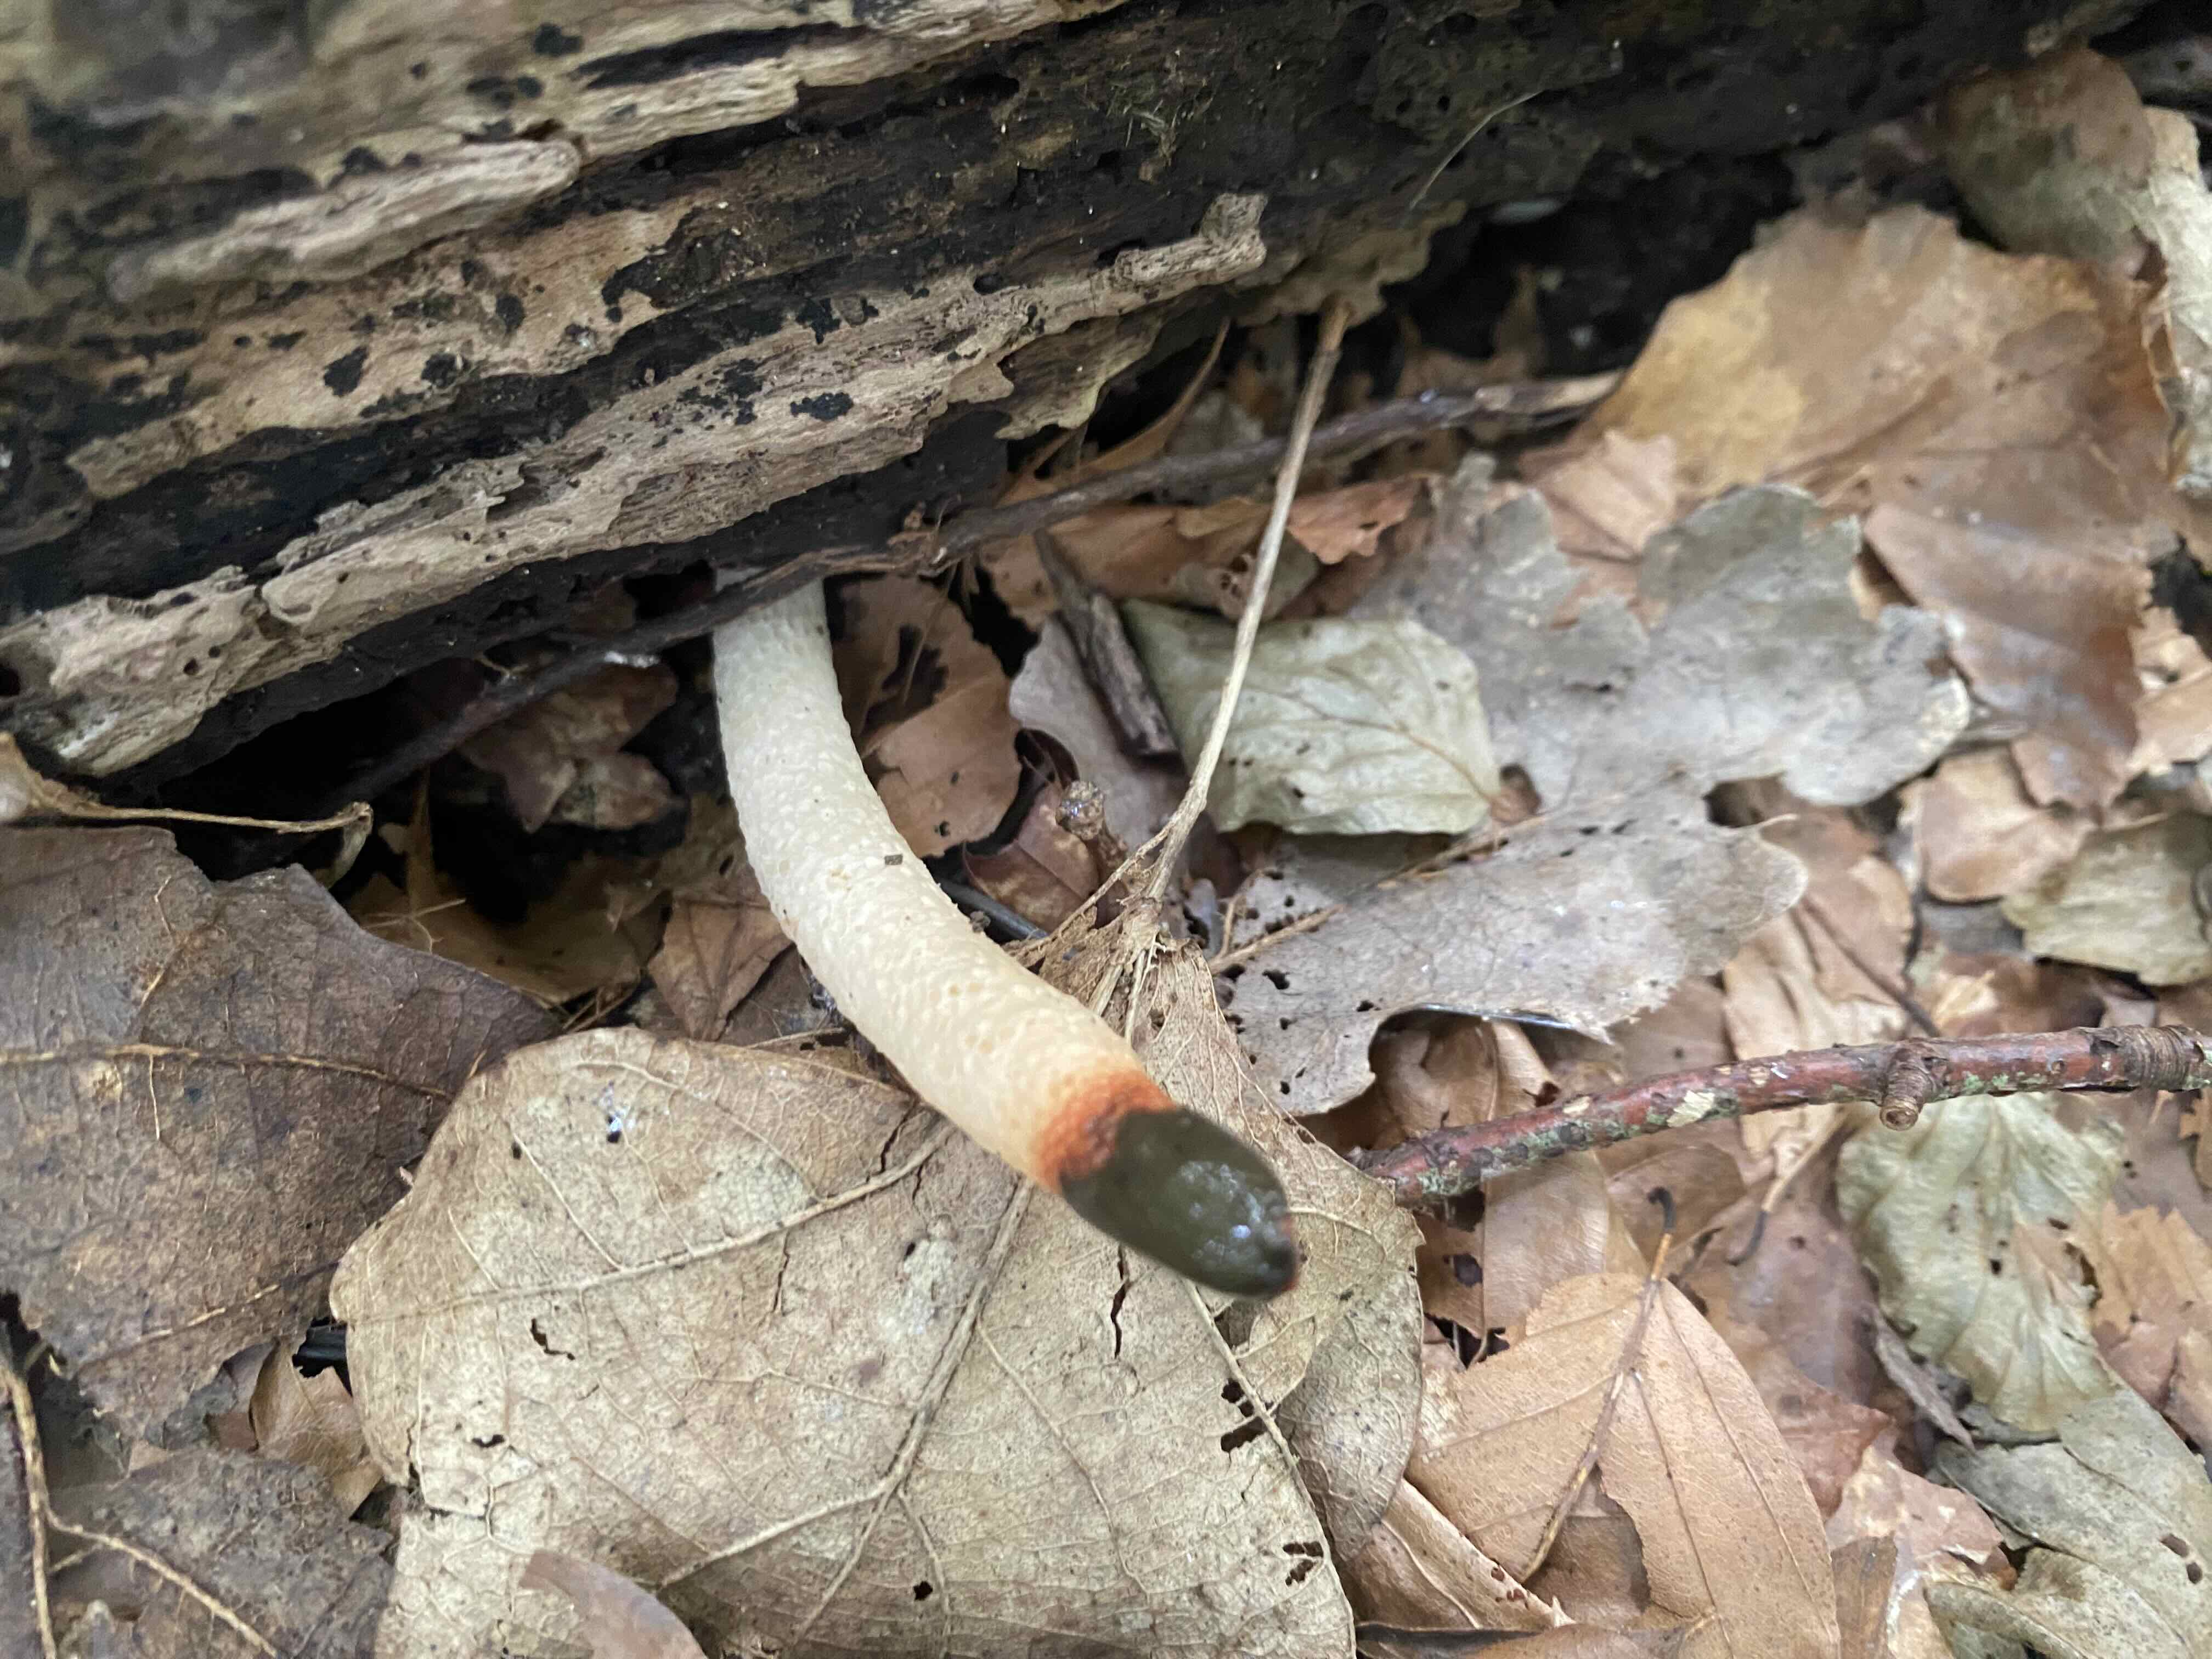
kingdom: Fungi
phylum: Basidiomycota
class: Agaricomycetes
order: Phallales
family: Phallaceae
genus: Mutinus
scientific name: Mutinus caninus
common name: hunde-stinksvamp
